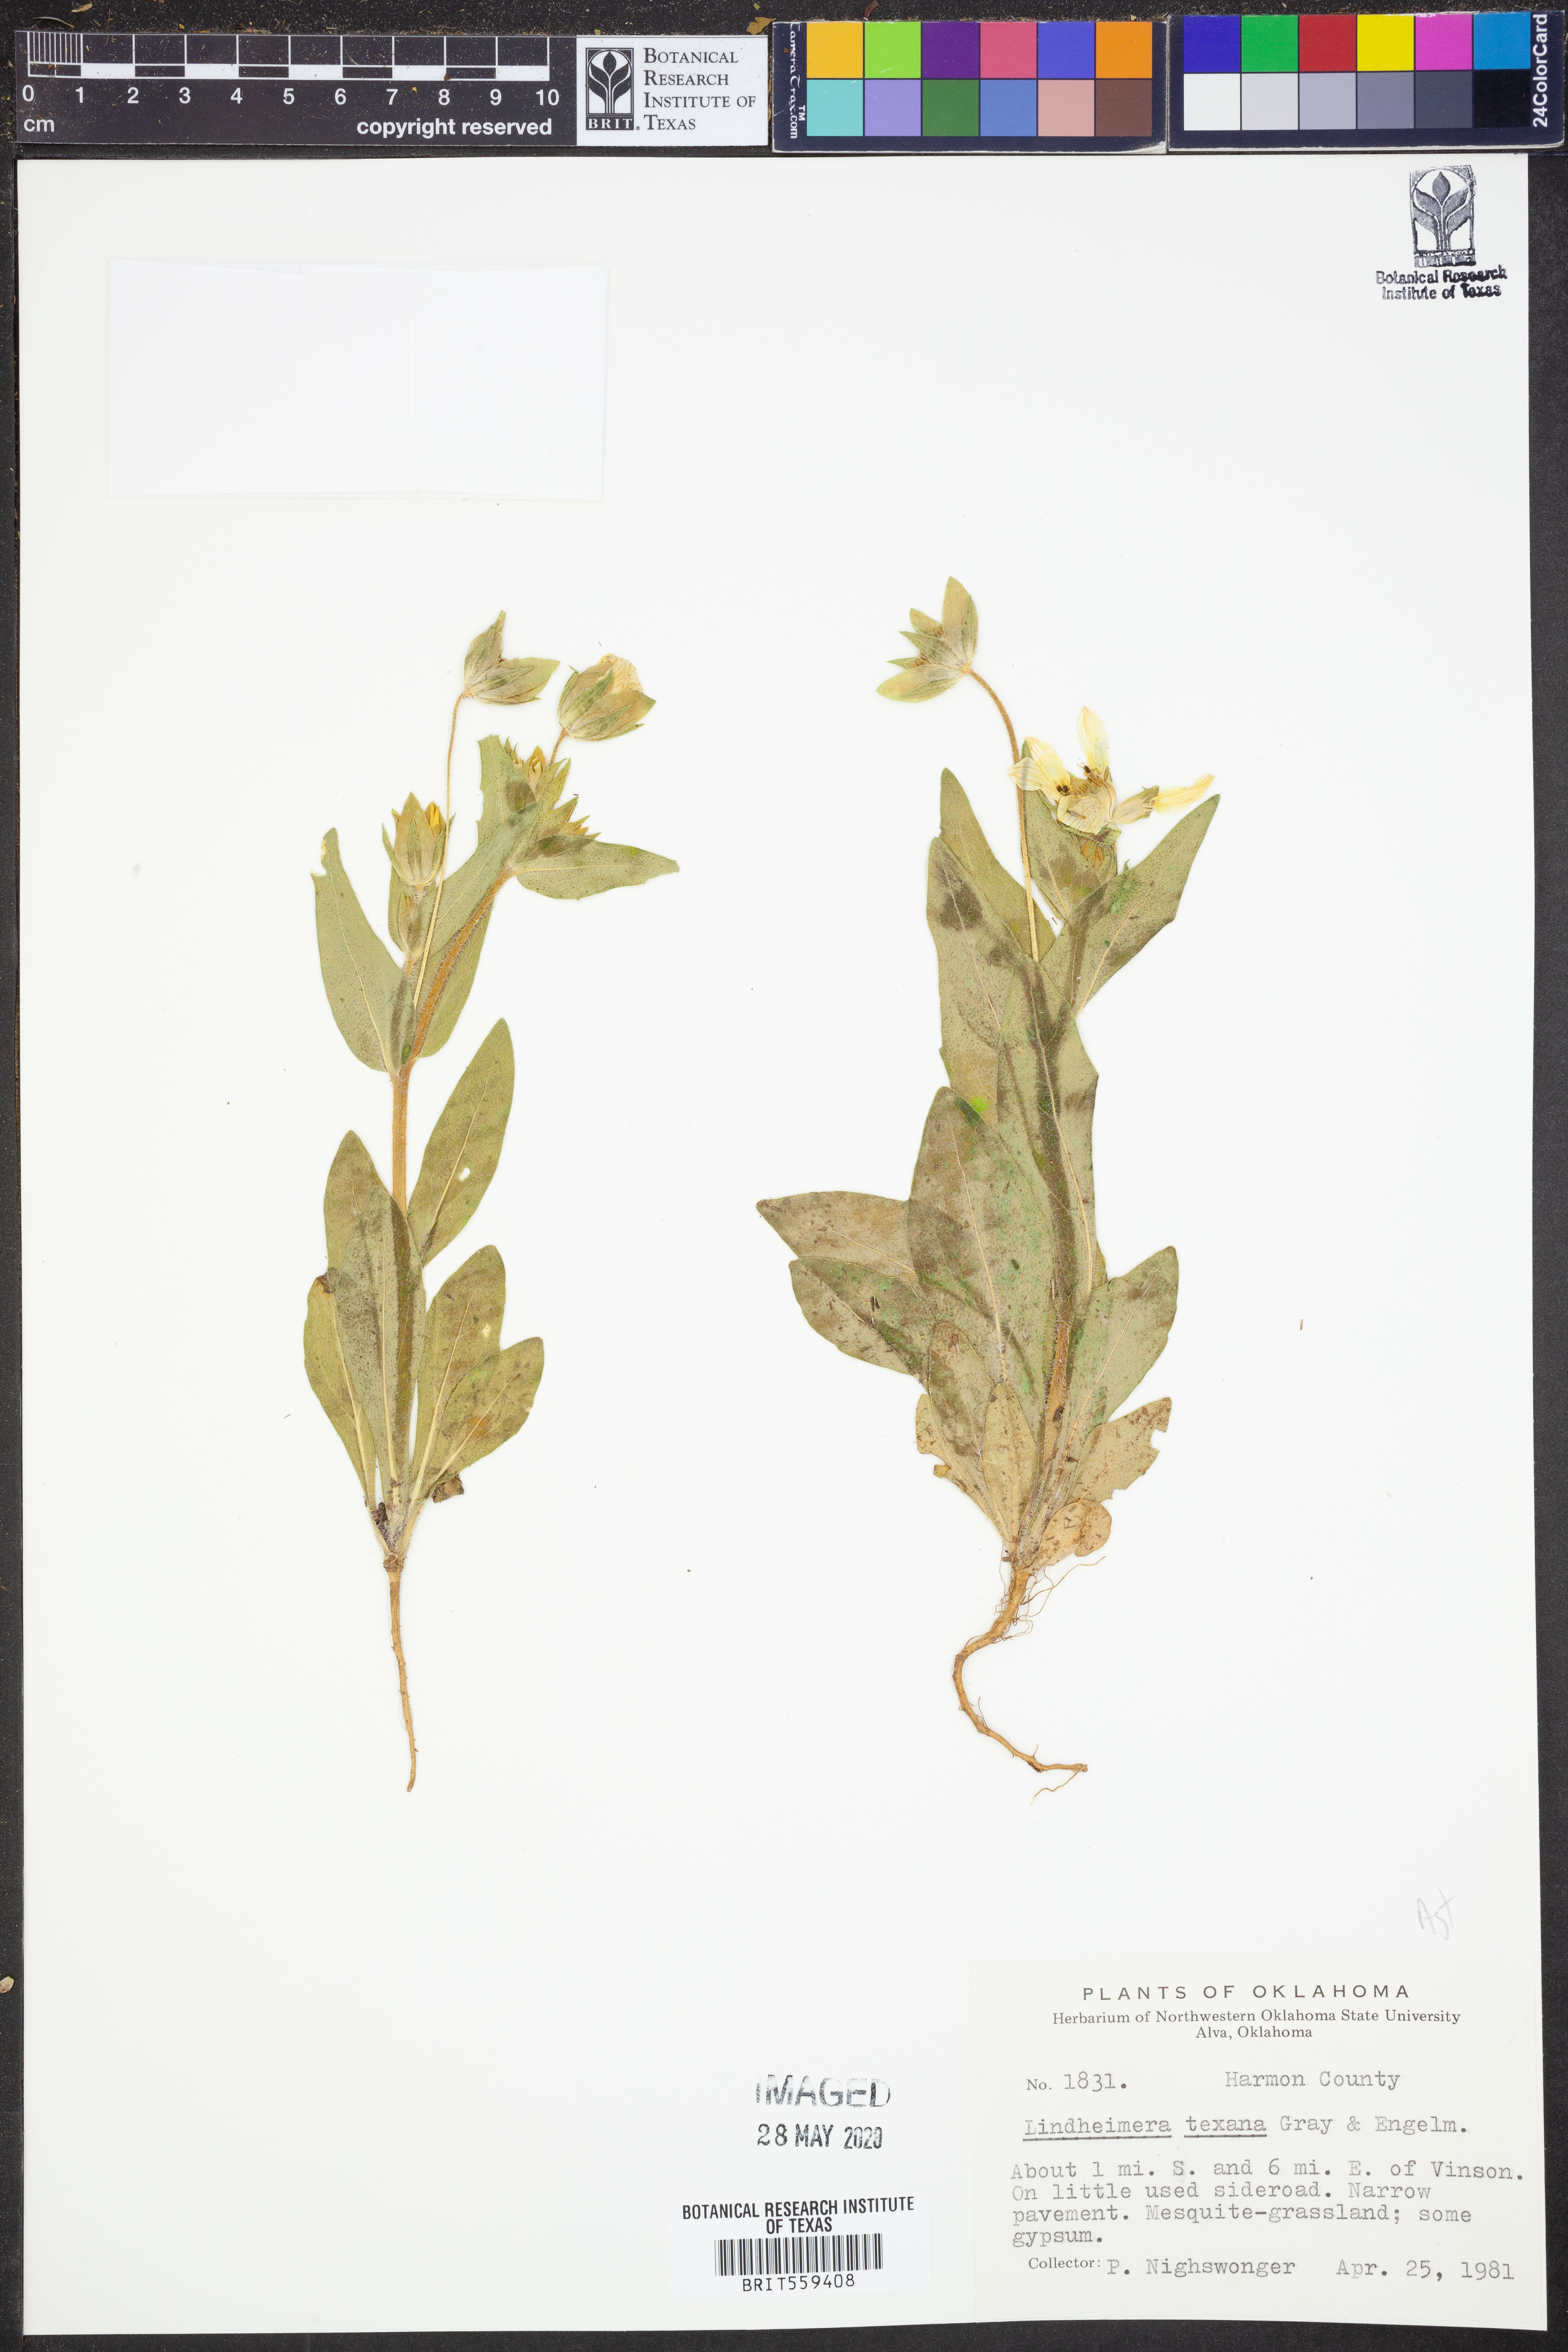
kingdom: Plantae
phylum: Tracheophyta
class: Magnoliopsida
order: Asterales
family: Asteraceae
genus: Lindheimera
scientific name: Lindheimera texana
